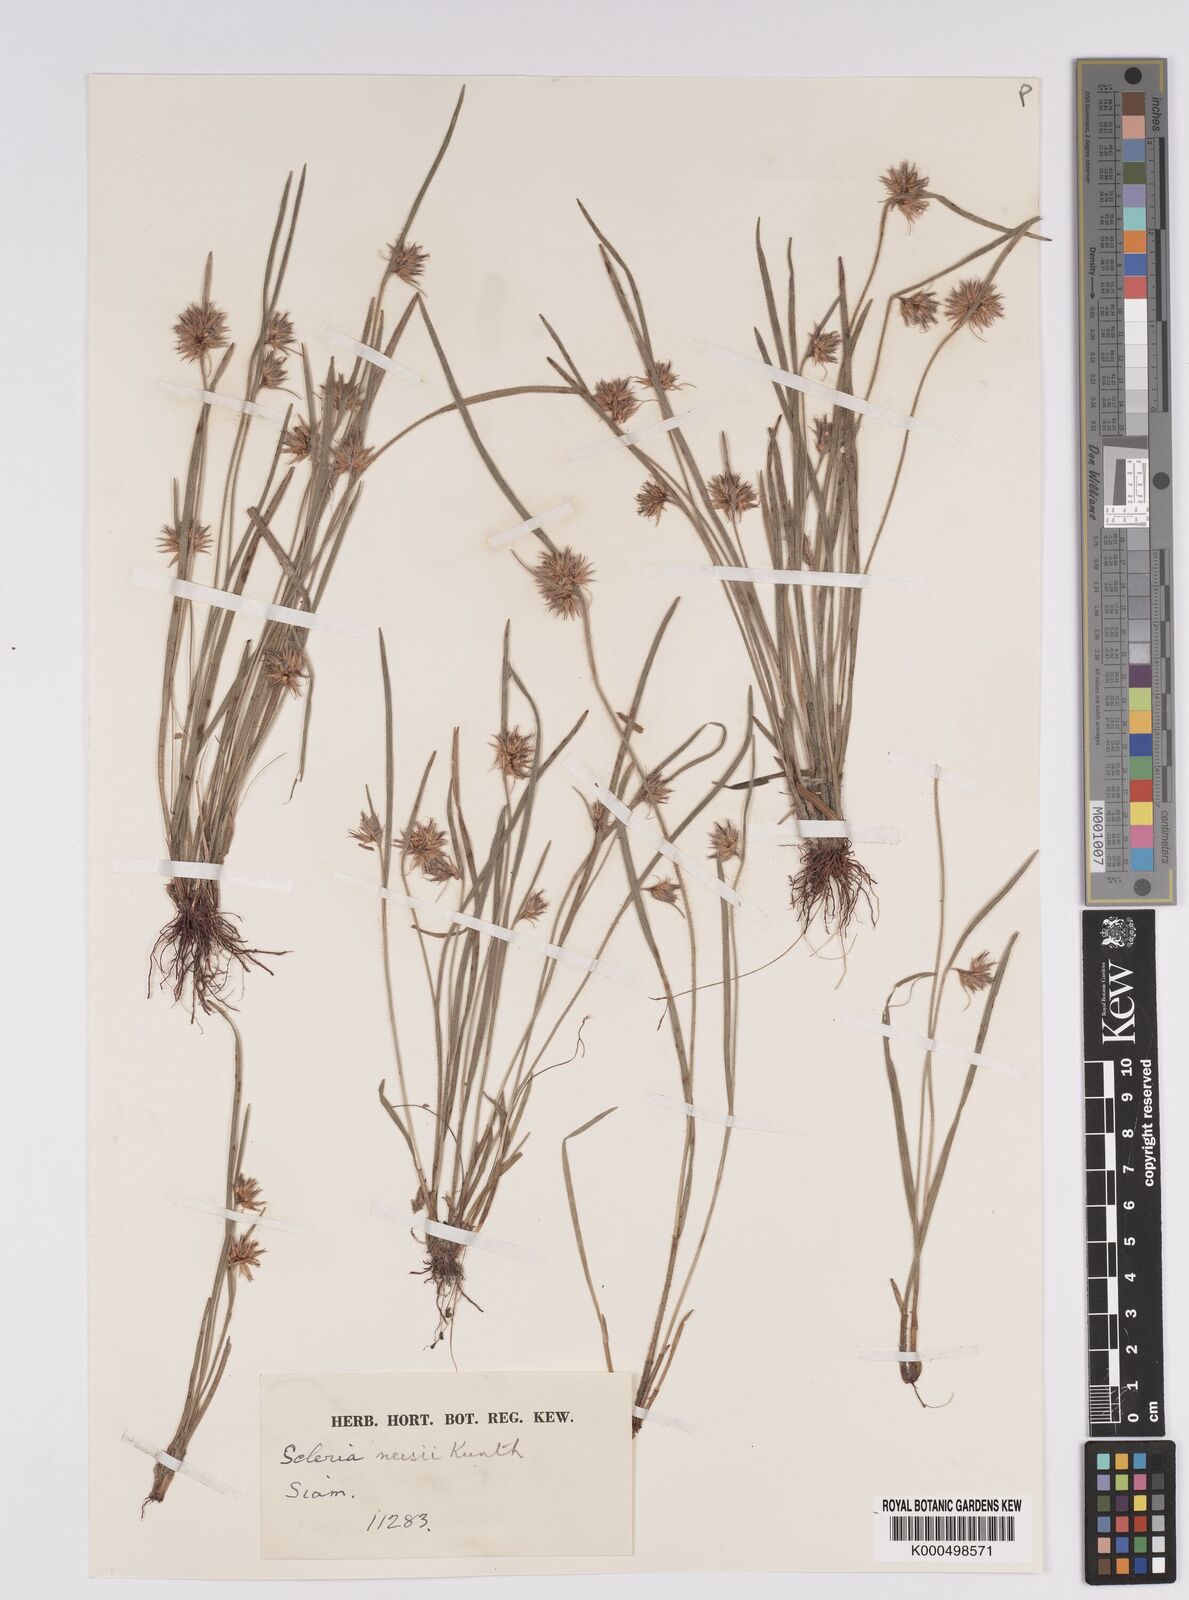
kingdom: Plantae
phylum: Tracheophyta
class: Liliopsida
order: Poales
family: Cyperaceae
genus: Scleria
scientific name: Scleria neesii
